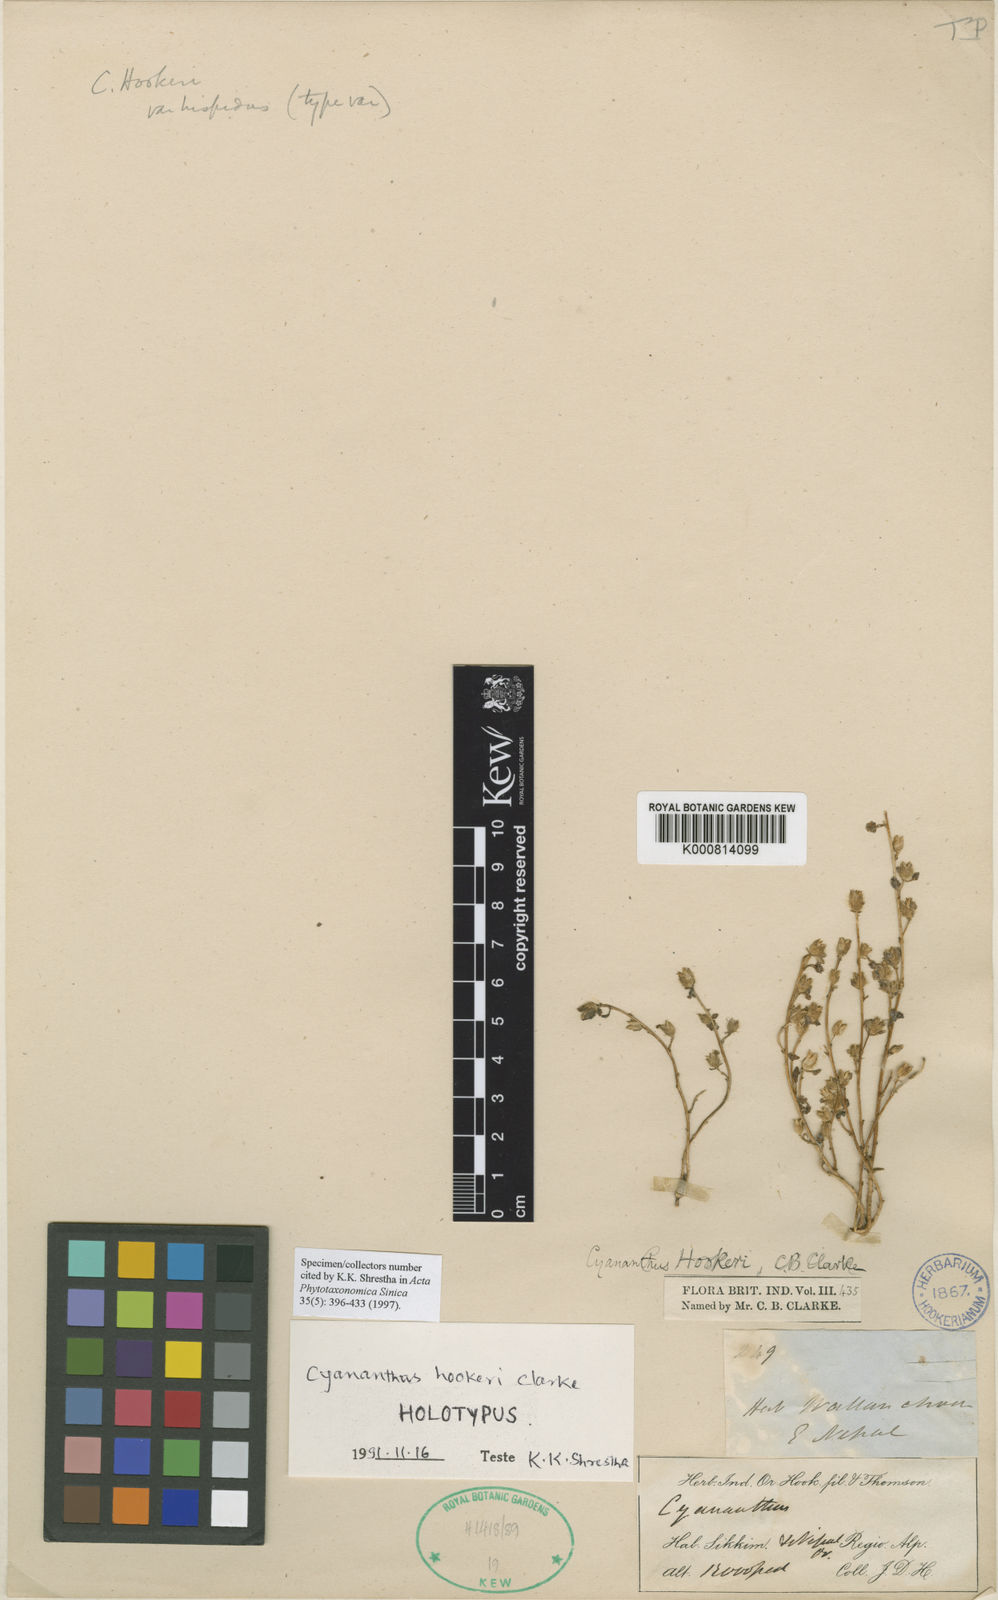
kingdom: Plantae
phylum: Tracheophyta
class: Magnoliopsida
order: Asterales
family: Campanulaceae
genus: Cyananthus
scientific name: Cyananthus hookeri
